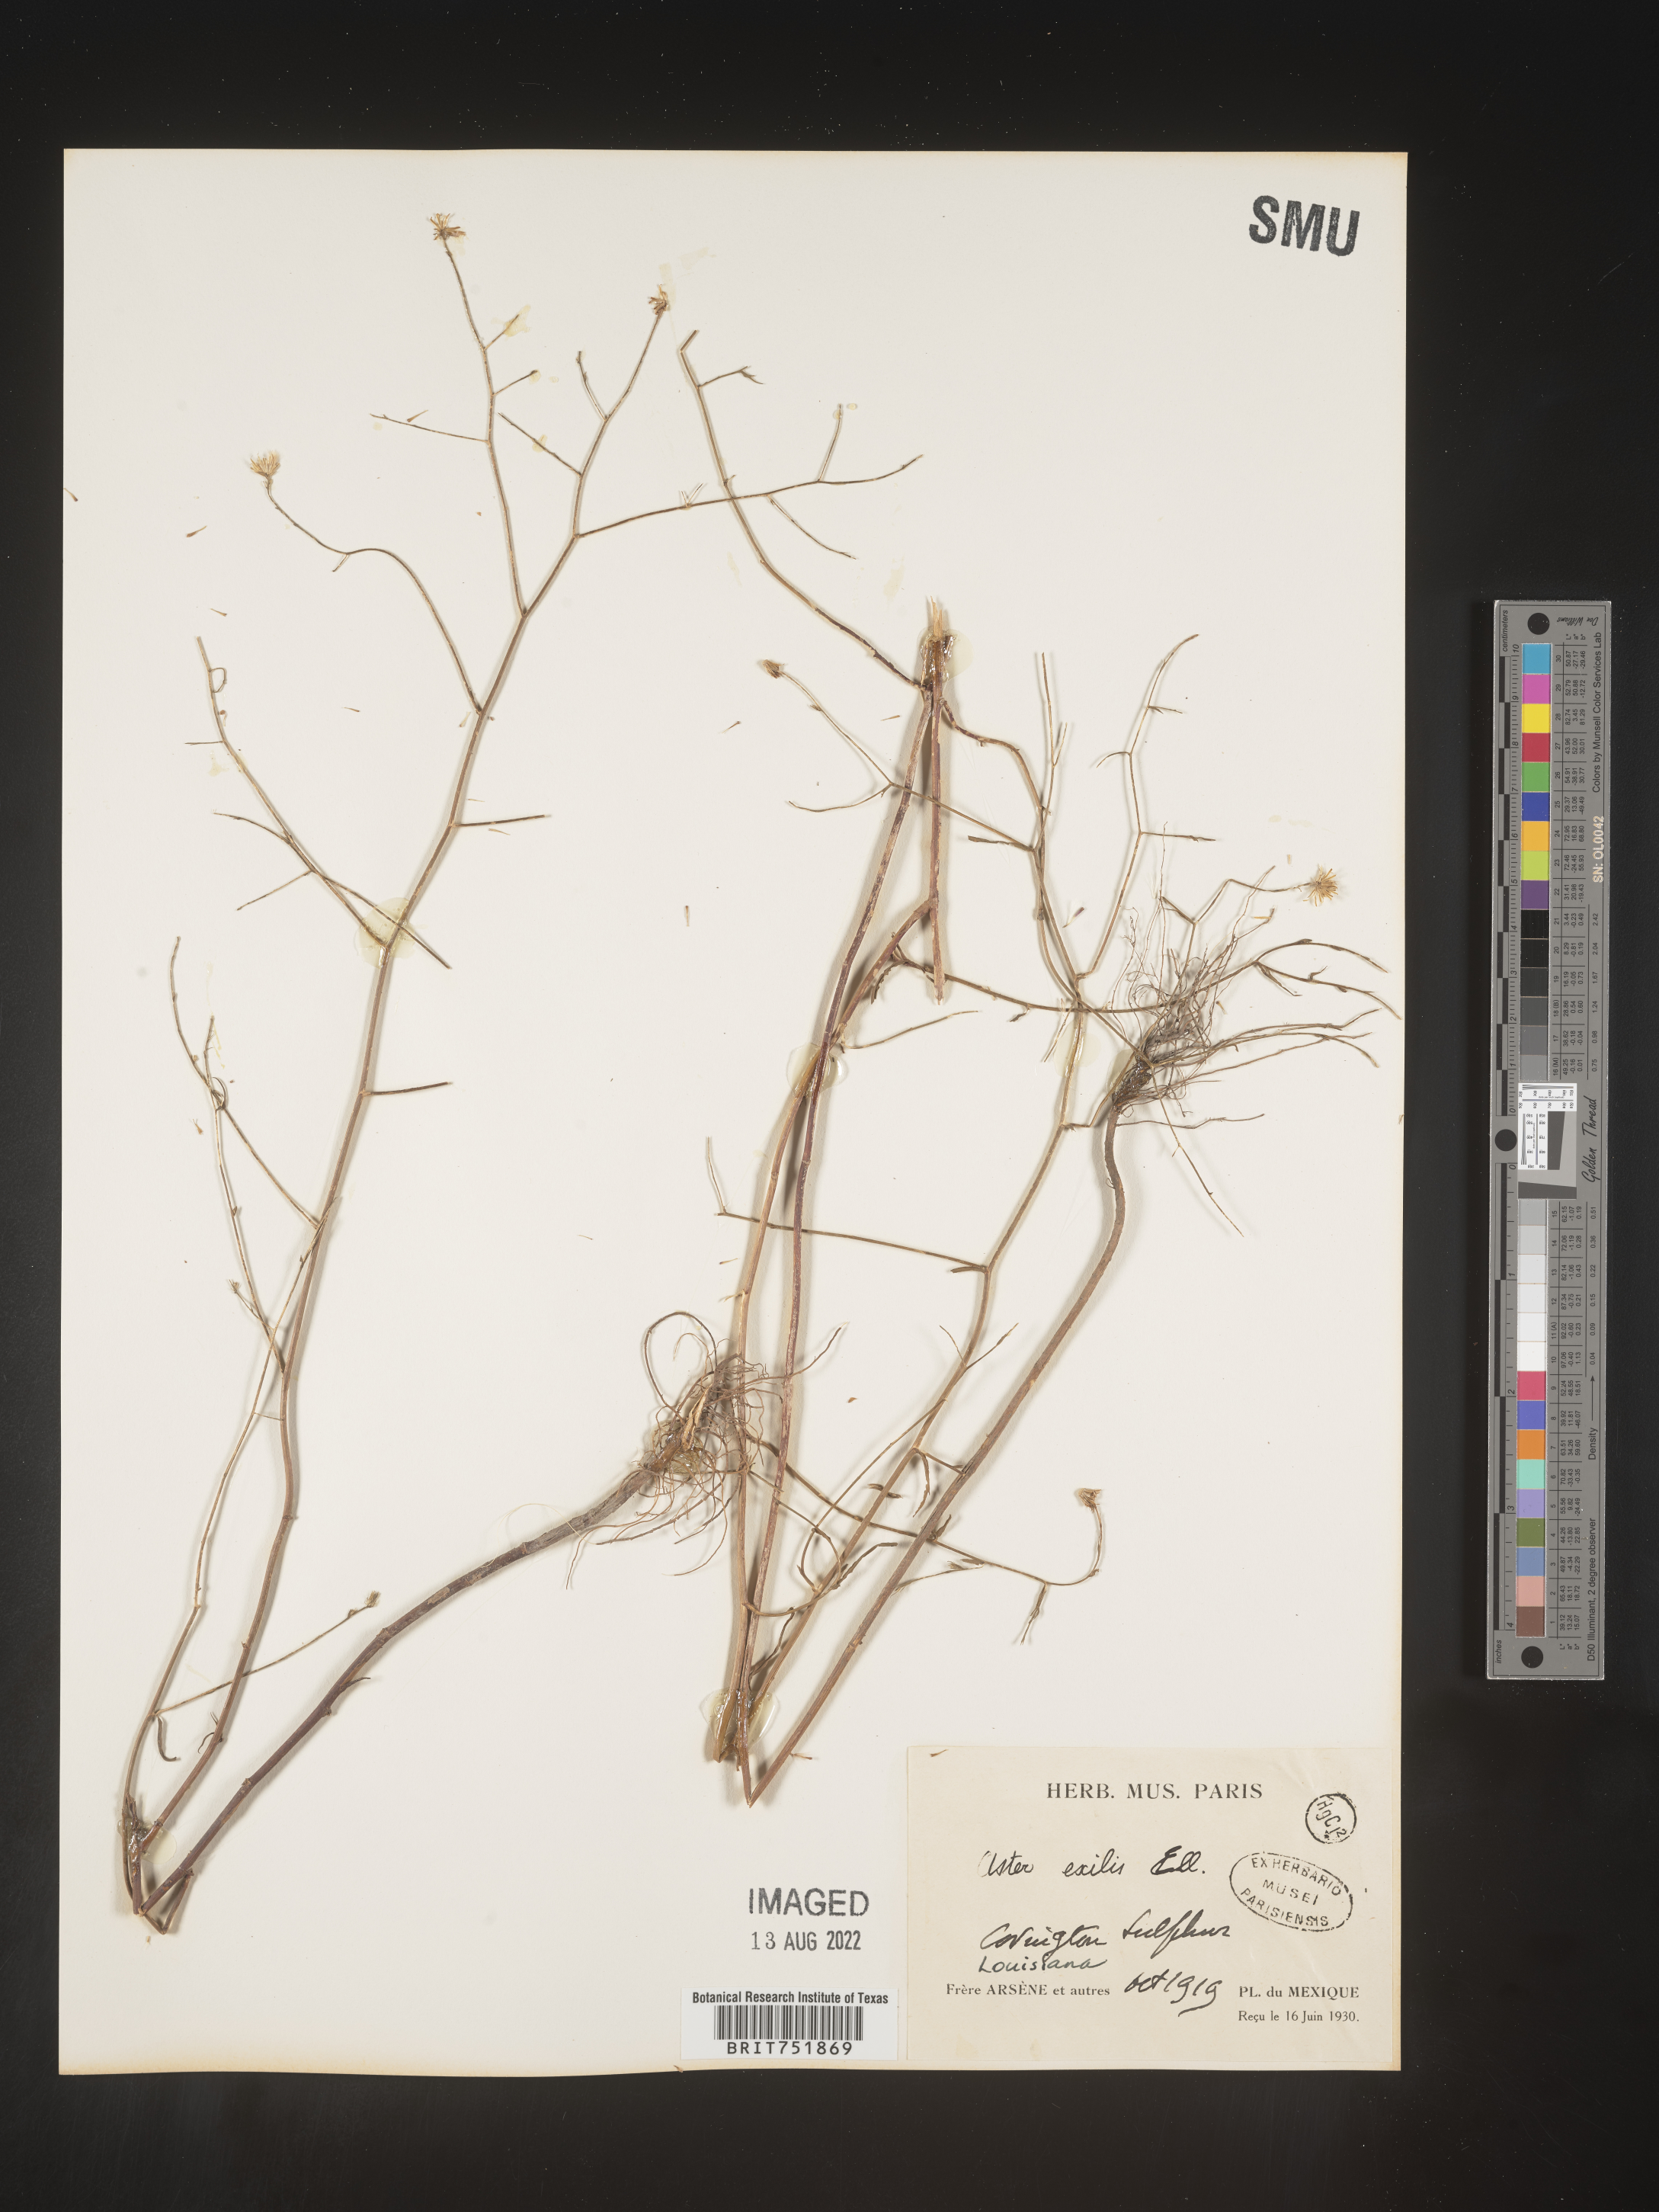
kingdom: Plantae
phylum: Tracheophyta
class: Magnoliopsida
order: Asterales
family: Asteraceae
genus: Symphyotrichum
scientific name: Symphyotrichum divaricatum
